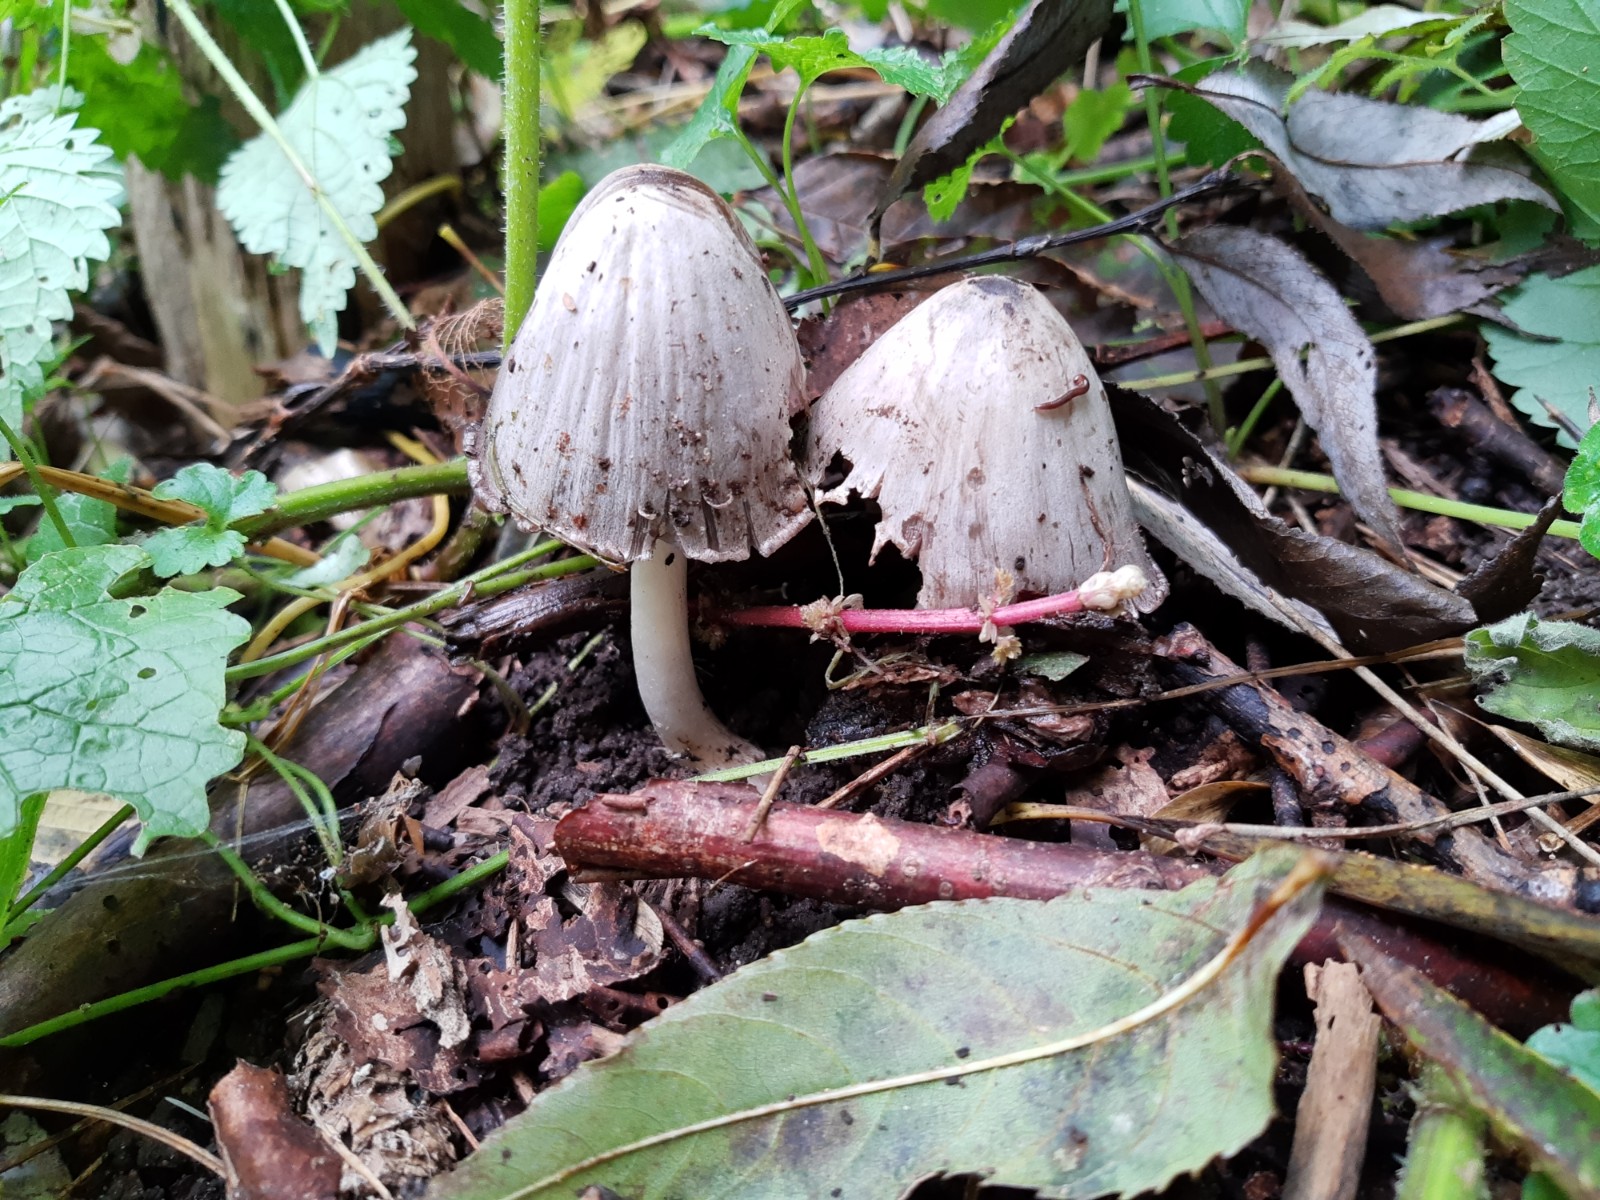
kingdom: Fungi
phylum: Basidiomycota
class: Agaricomycetes
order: Agaricales
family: Psathyrellaceae
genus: Coprinopsis
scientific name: Coprinopsis atramentaria
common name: almindelig blækhat
